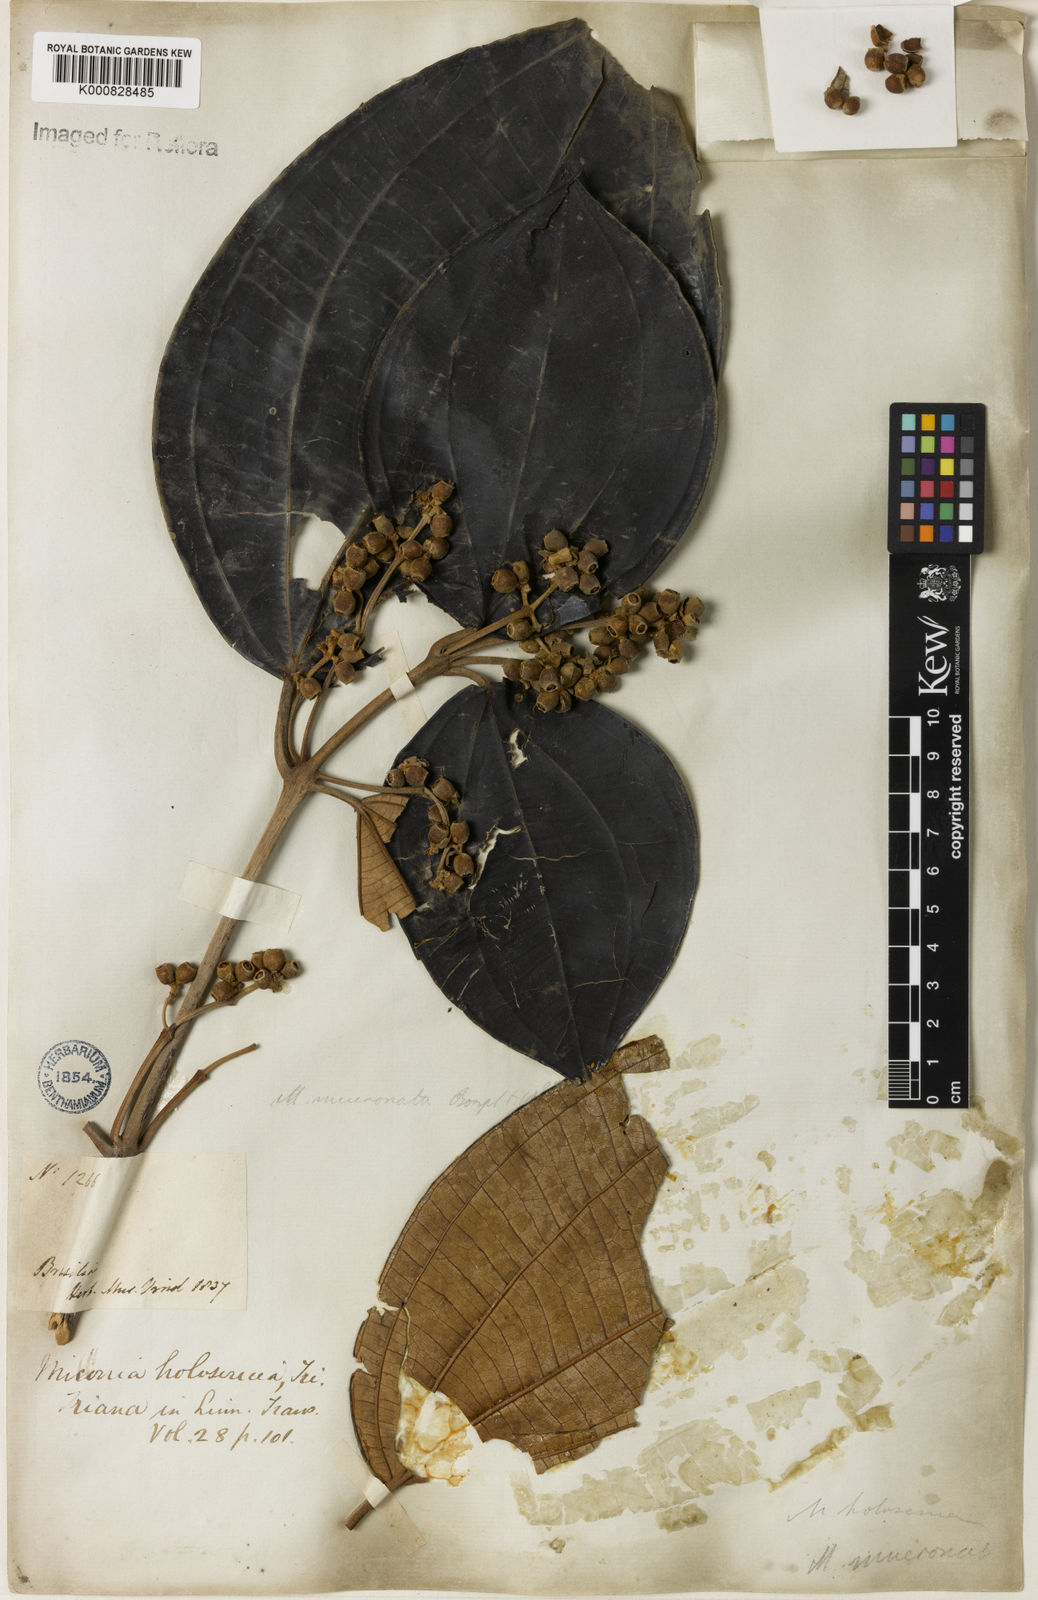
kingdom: Plantae
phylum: Tracheophyta
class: Magnoliopsida
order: Myrtales
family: Melastomataceae
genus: Miconia
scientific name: Miconia holosericea
